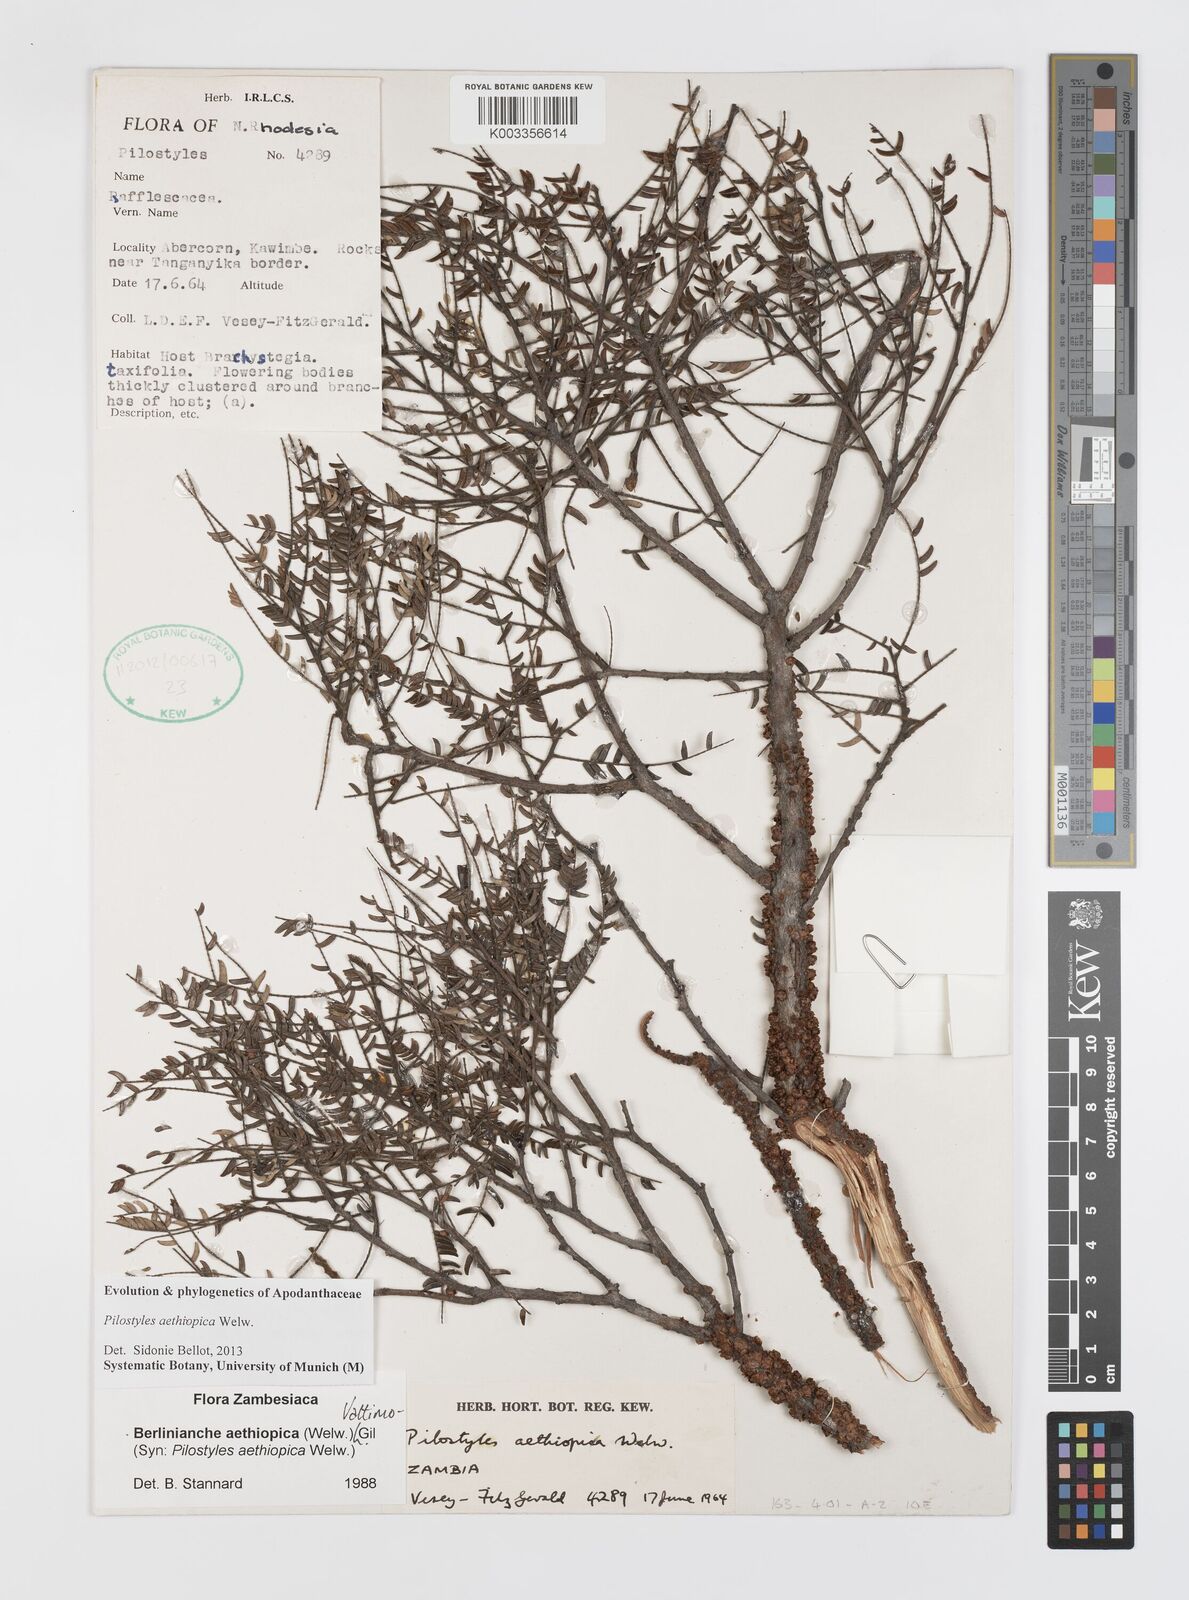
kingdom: Plantae
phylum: Tracheophyta
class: Magnoliopsida
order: Cucurbitales
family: Apodanthaceae
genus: Pilostyles
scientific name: Pilostyles aethiopica
